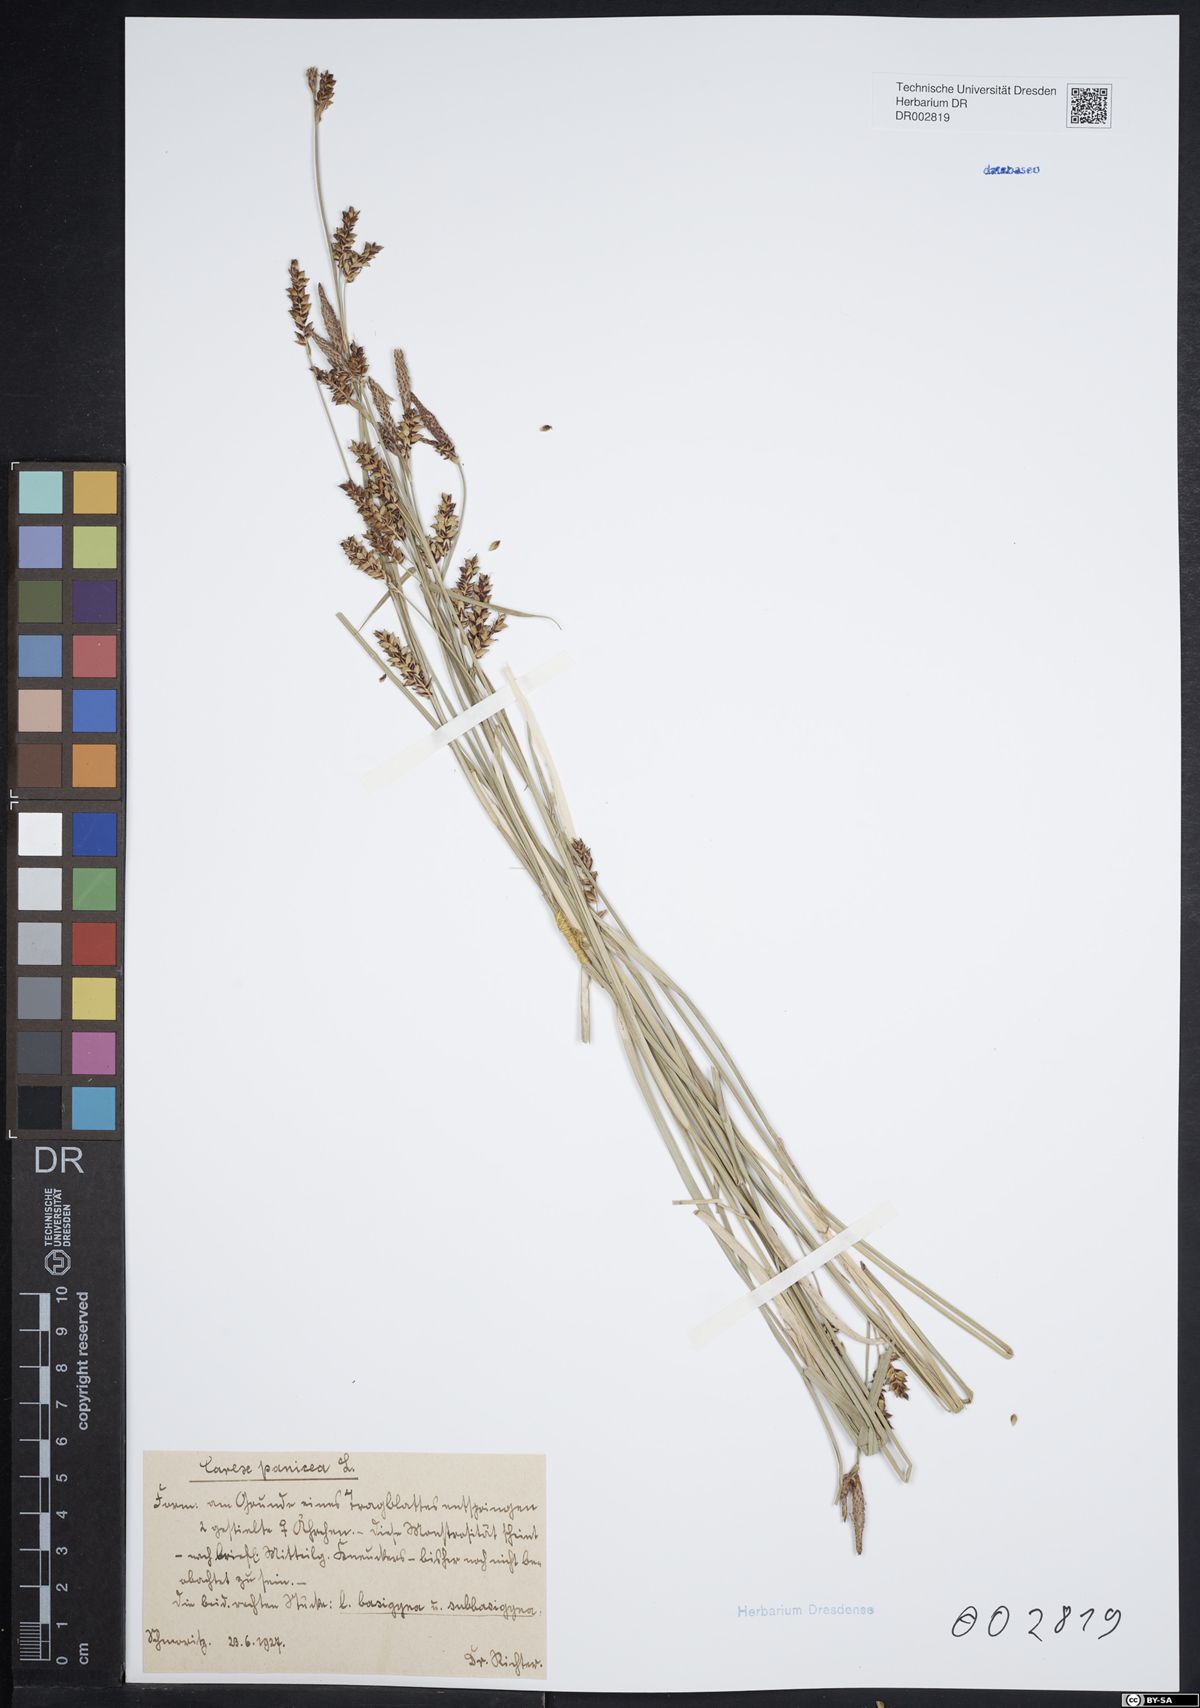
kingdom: Plantae
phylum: Tracheophyta
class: Liliopsida
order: Poales
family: Cyperaceae
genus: Carex
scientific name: Carex panicea
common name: Carnation sedge
